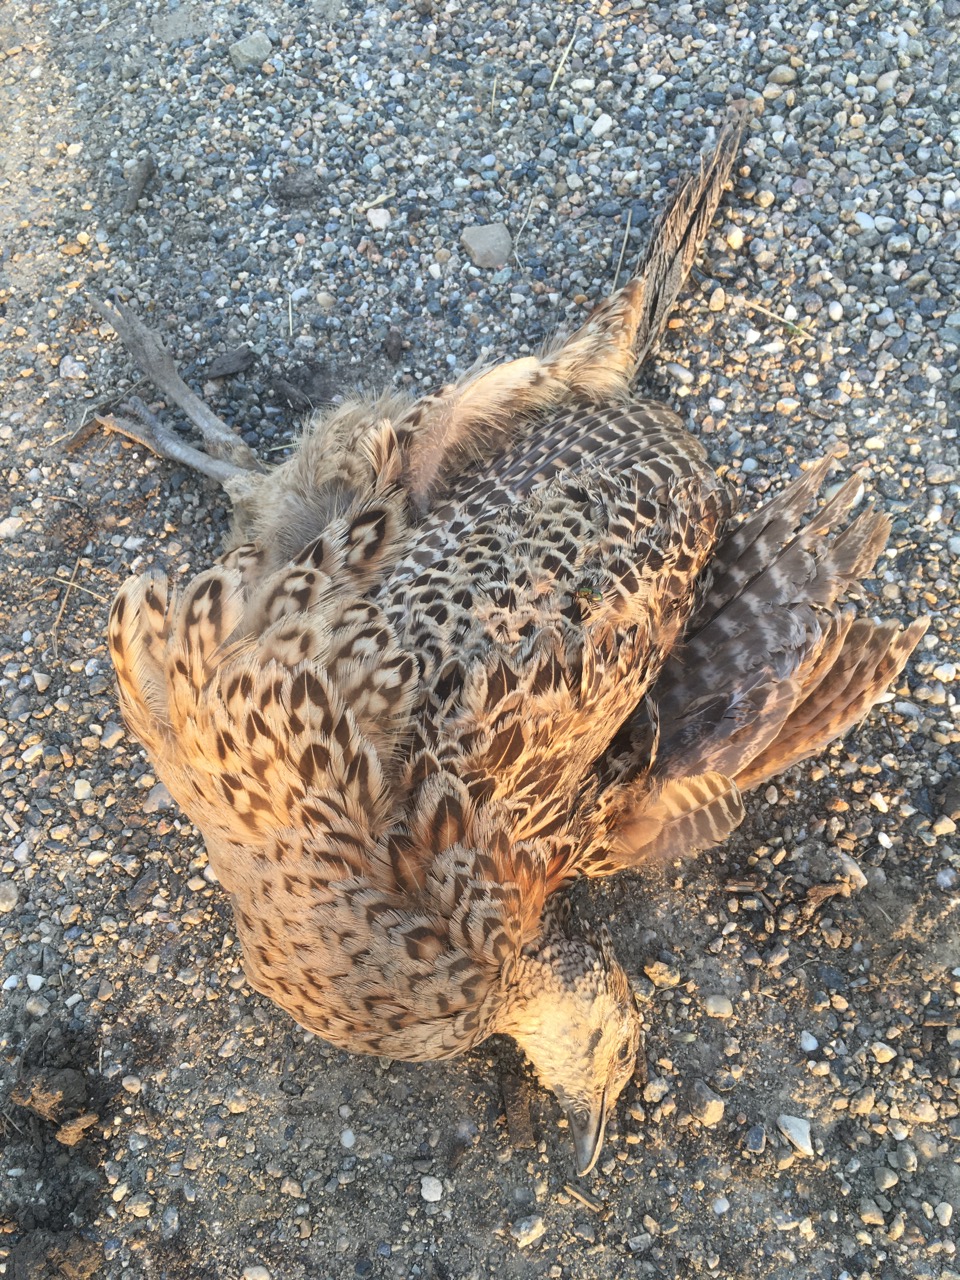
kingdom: Animalia
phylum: Chordata
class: Aves
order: Galliformes
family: Phasianidae
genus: Phasianus
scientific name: Phasianus colchicus
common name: Common pheasant
